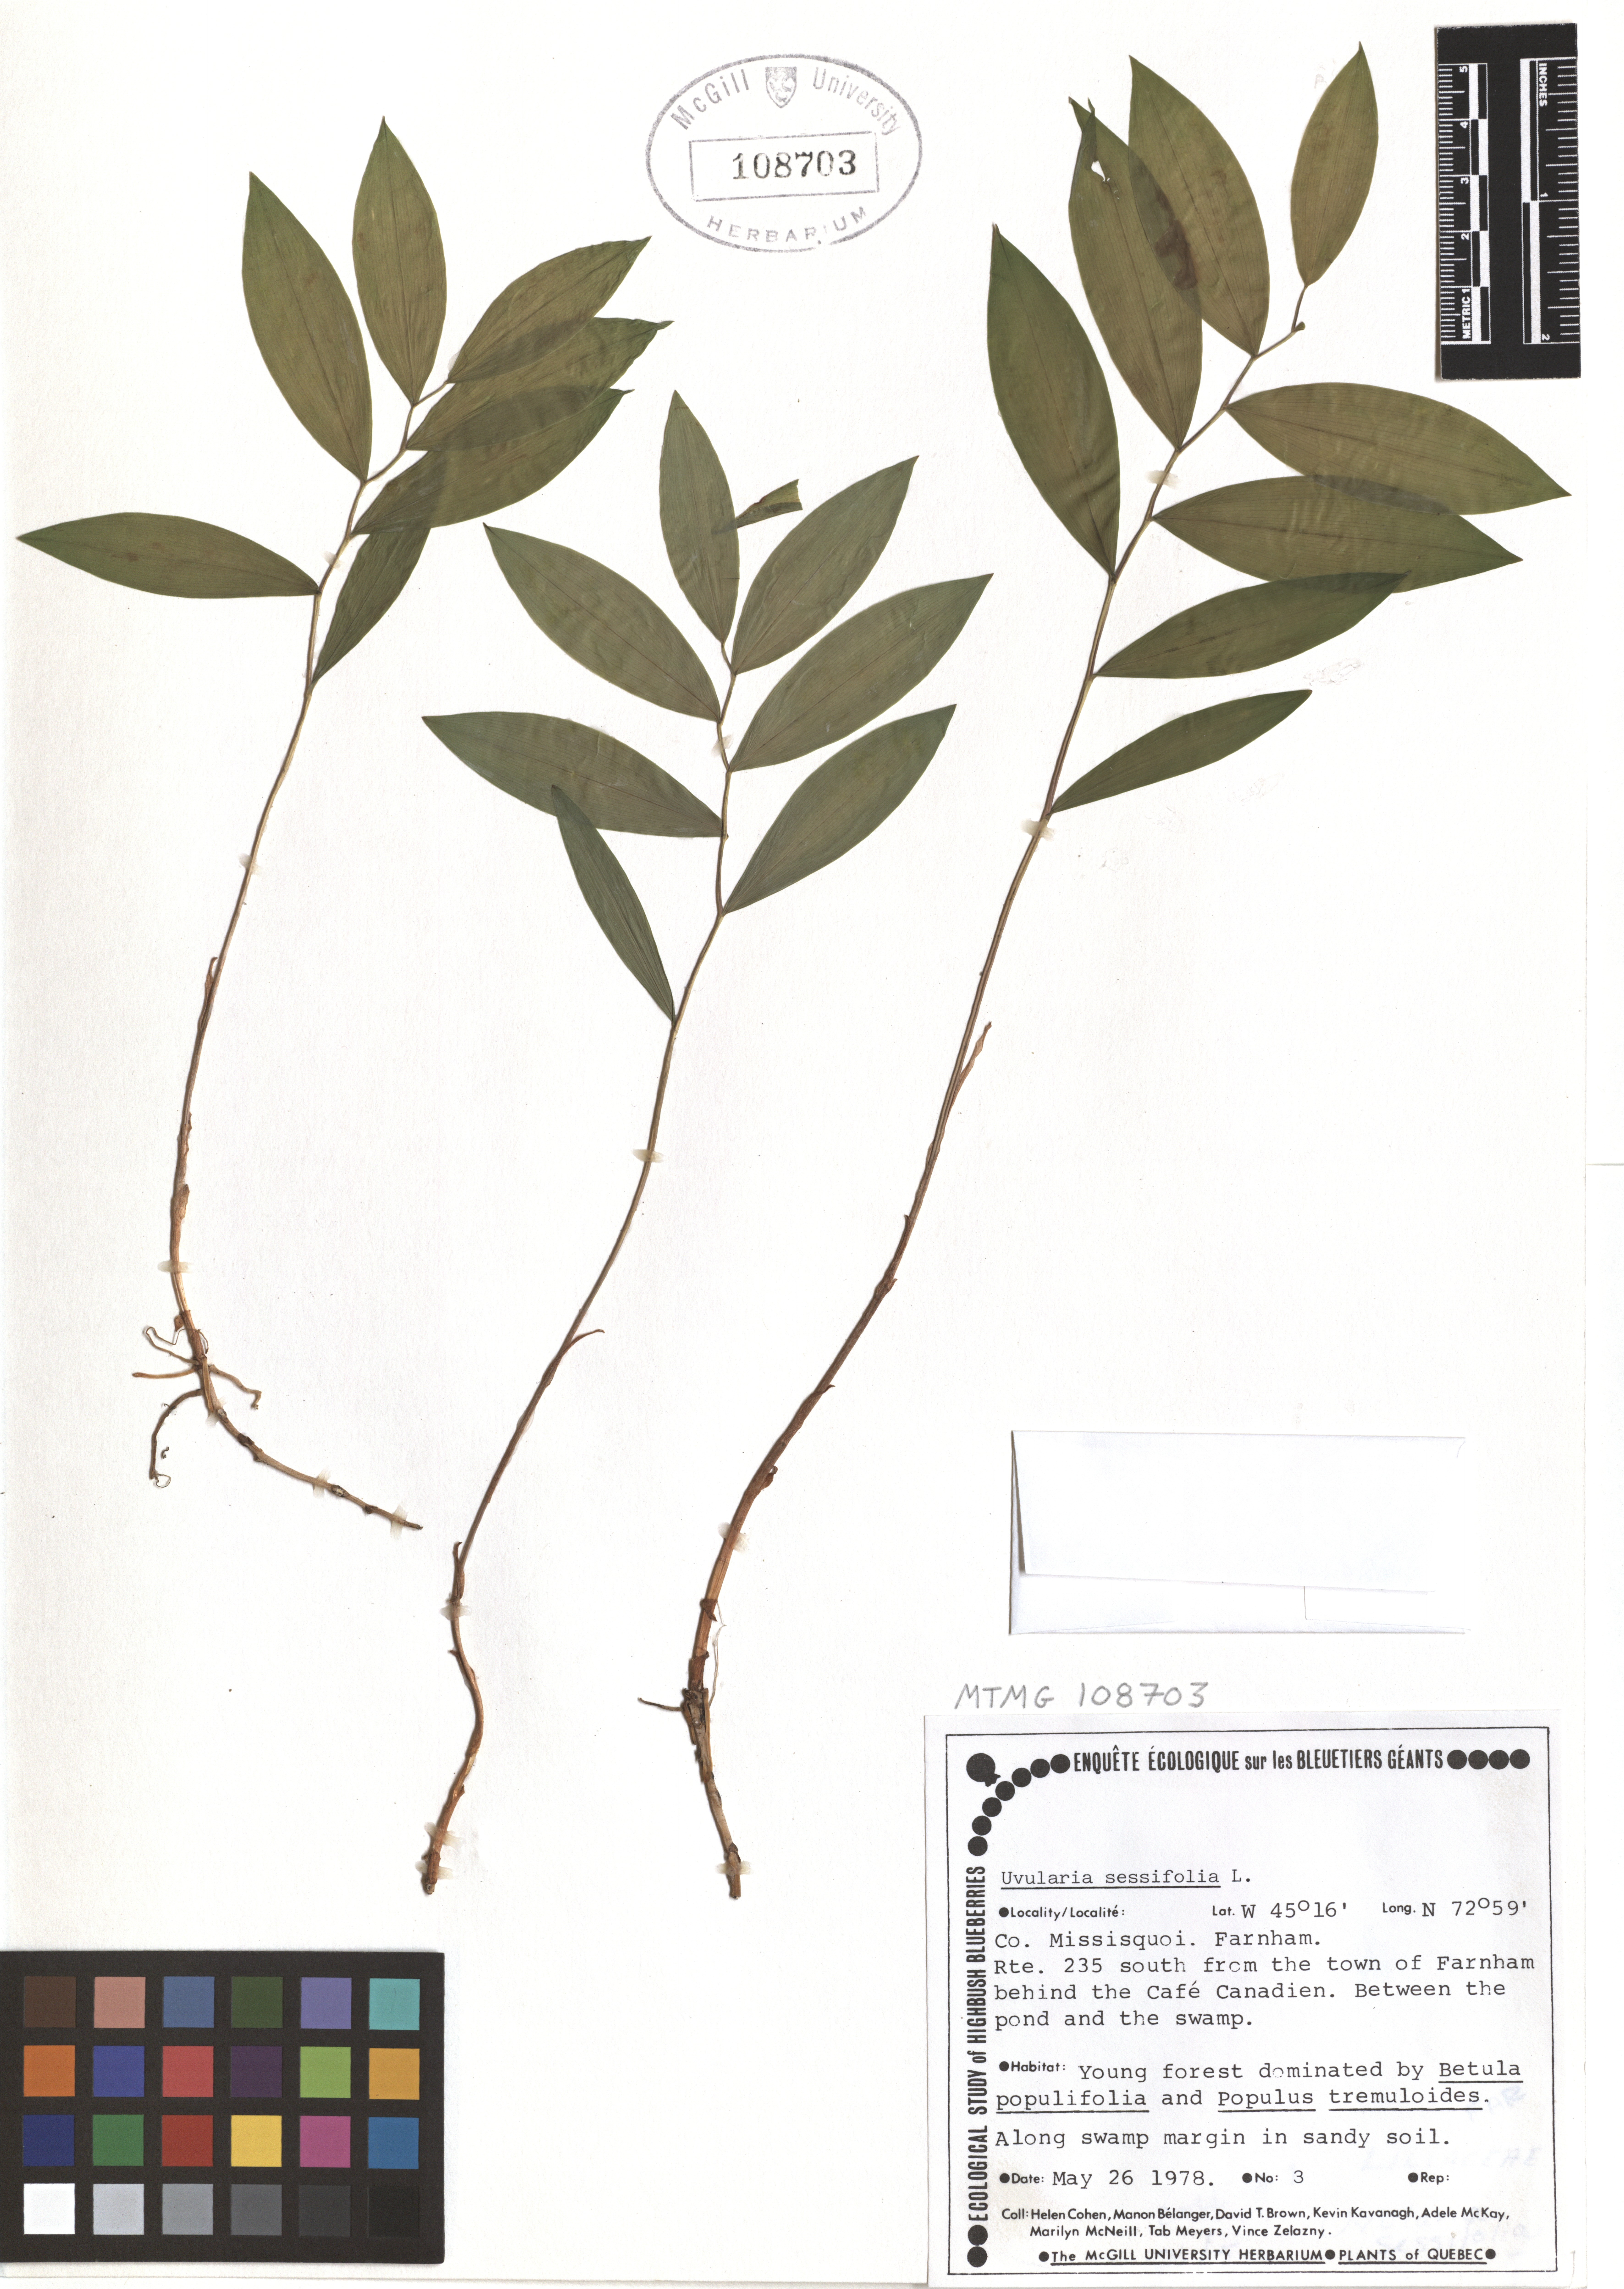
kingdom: Plantae
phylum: Tracheophyta
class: Liliopsida
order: Liliales
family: Colchicaceae
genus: Uvularia
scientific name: Uvularia sessilifolia
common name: Straw-lily
